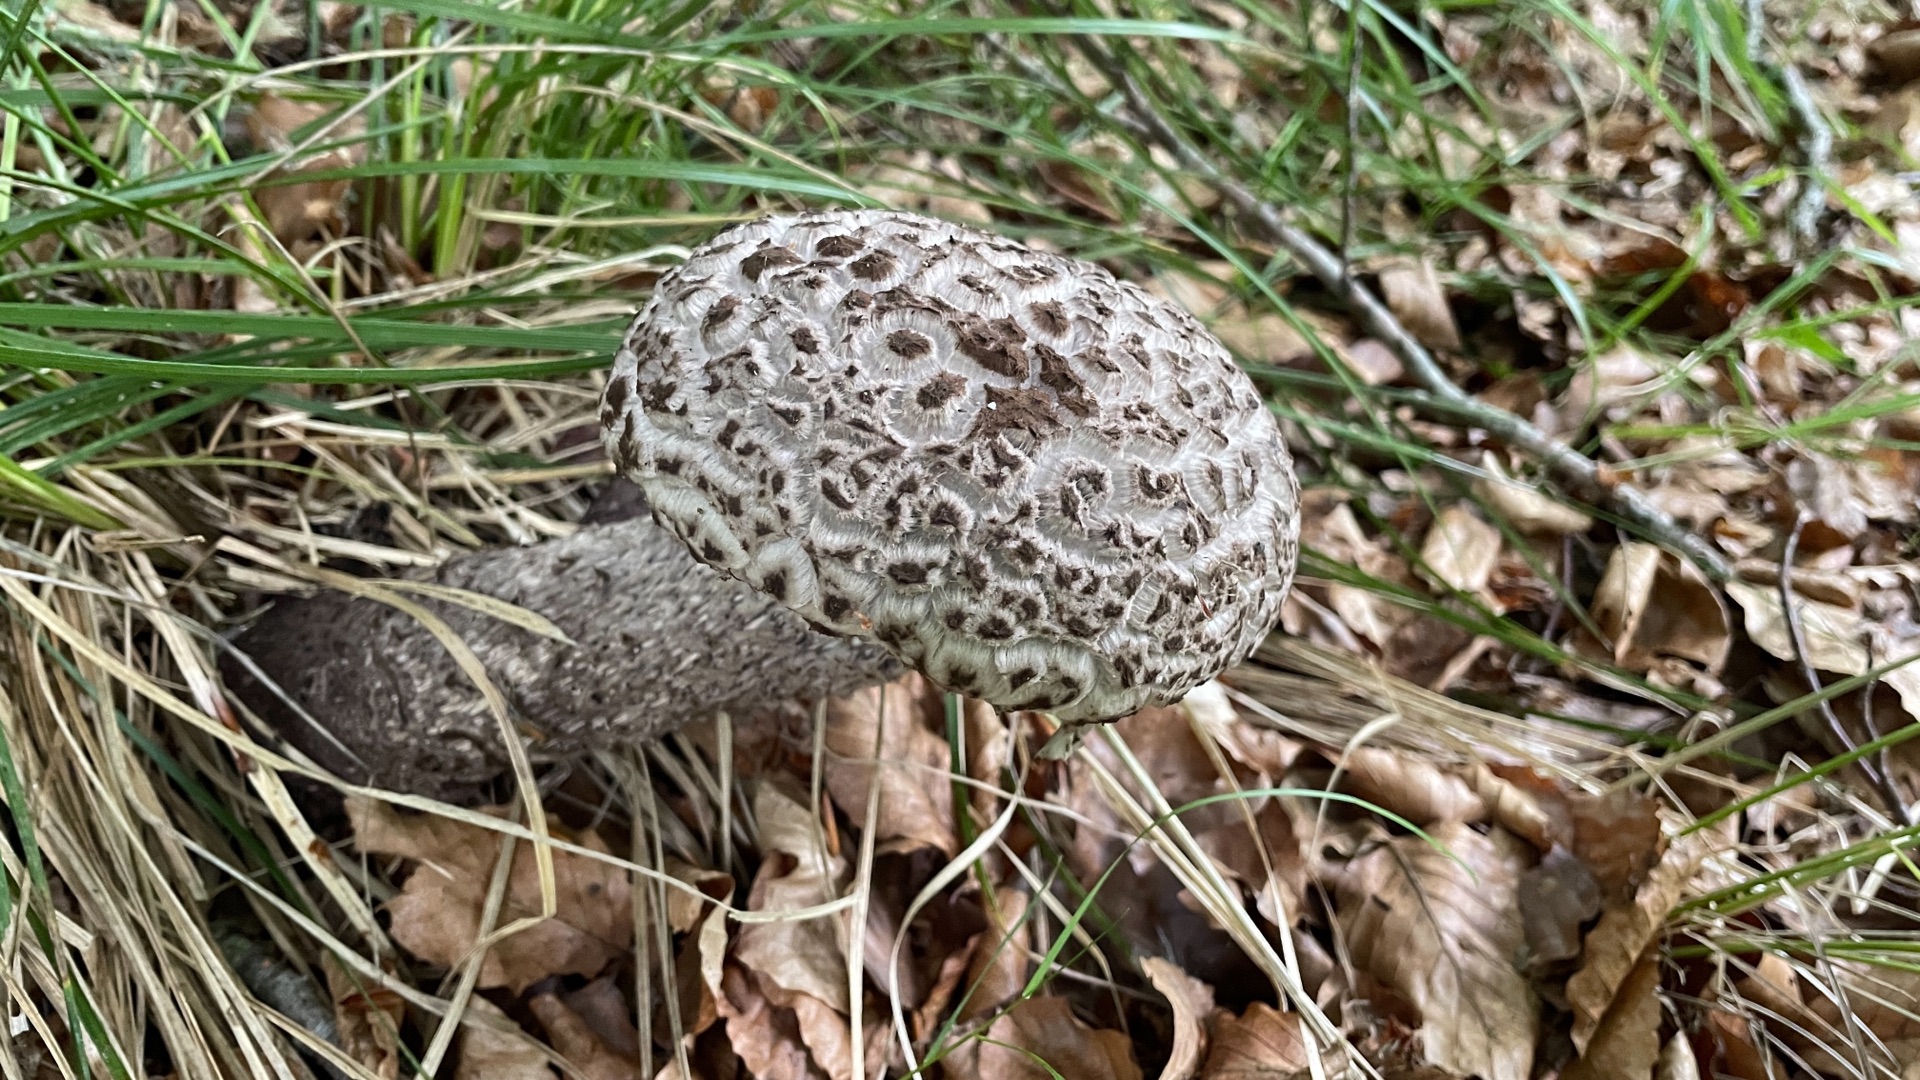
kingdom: Fungi
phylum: Basidiomycota
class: Agaricomycetes
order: Boletales
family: Boletaceae
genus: Strobilomyces
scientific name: Strobilomyces strobilaceus
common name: Koglerørhat
